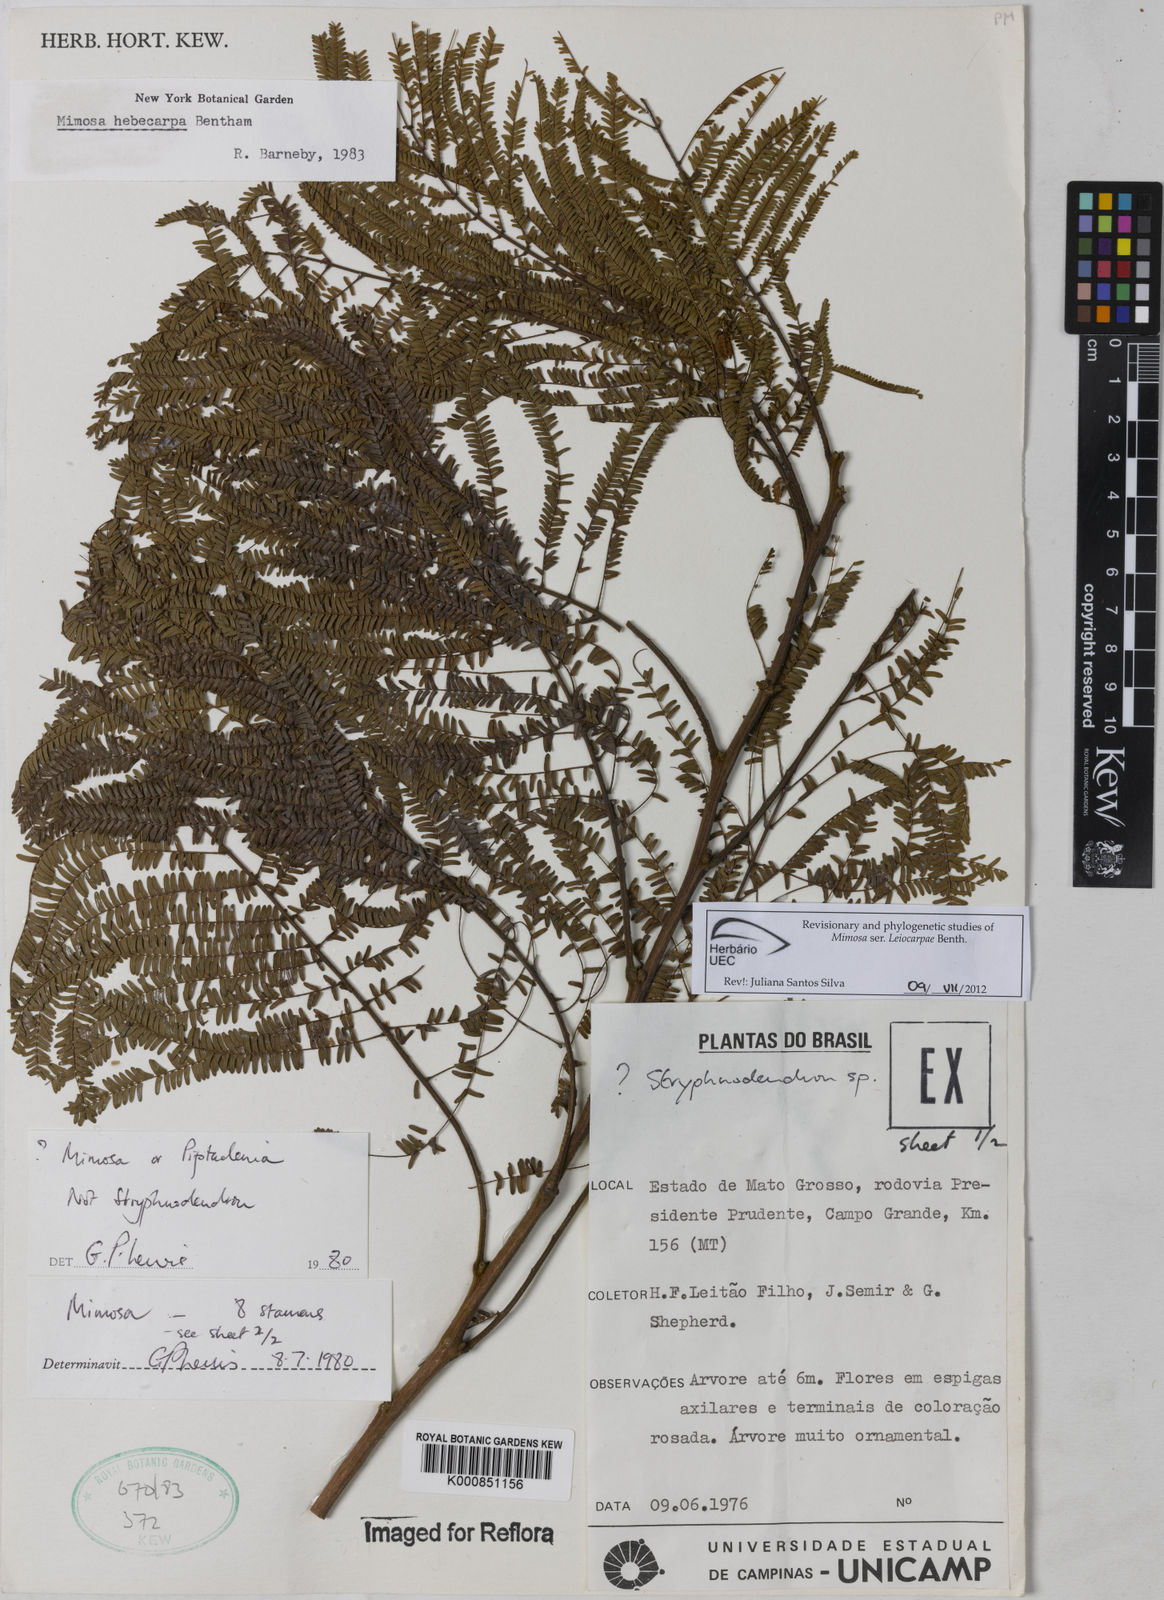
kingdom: Plantae
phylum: Tracheophyta
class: Magnoliopsida
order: Fabales
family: Fabaceae
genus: Mimosa
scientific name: Mimosa hebecarpa
